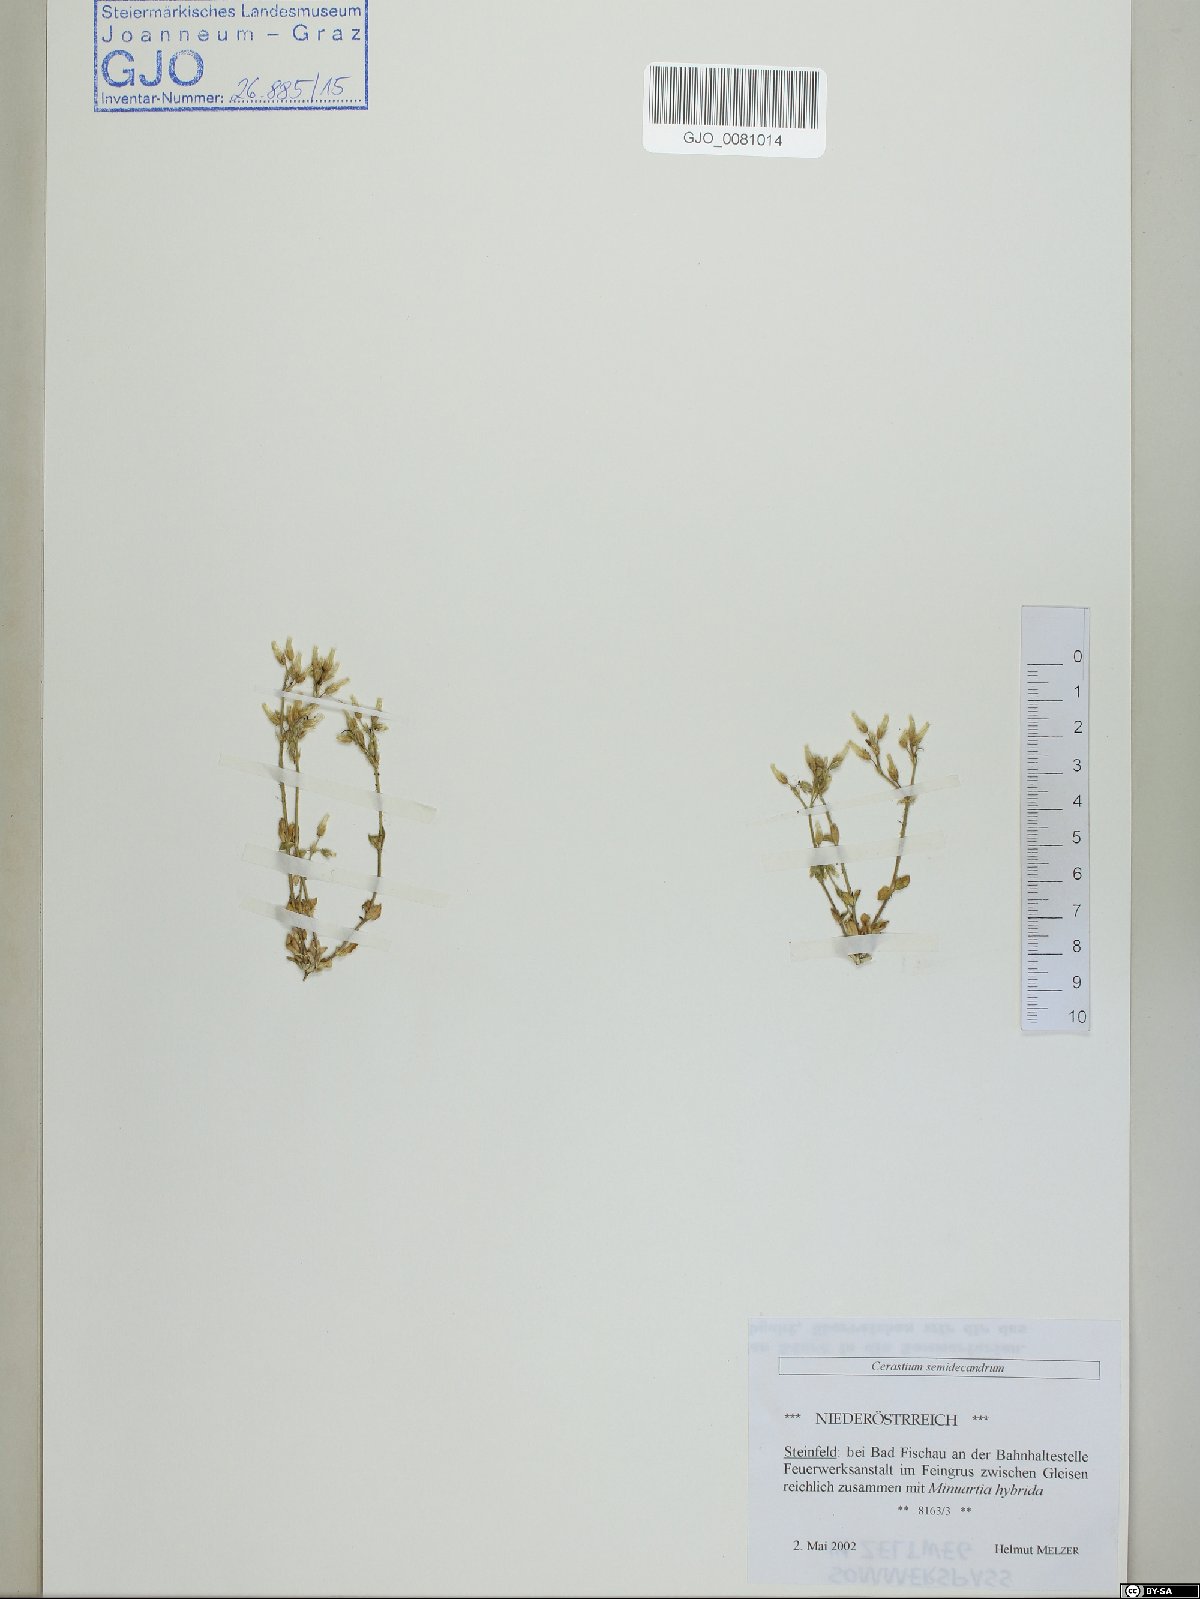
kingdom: Plantae
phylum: Tracheophyta
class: Magnoliopsida
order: Caryophyllales
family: Caryophyllaceae
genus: Cerastium
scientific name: Cerastium semidecandrum
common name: Little mouse-ear
